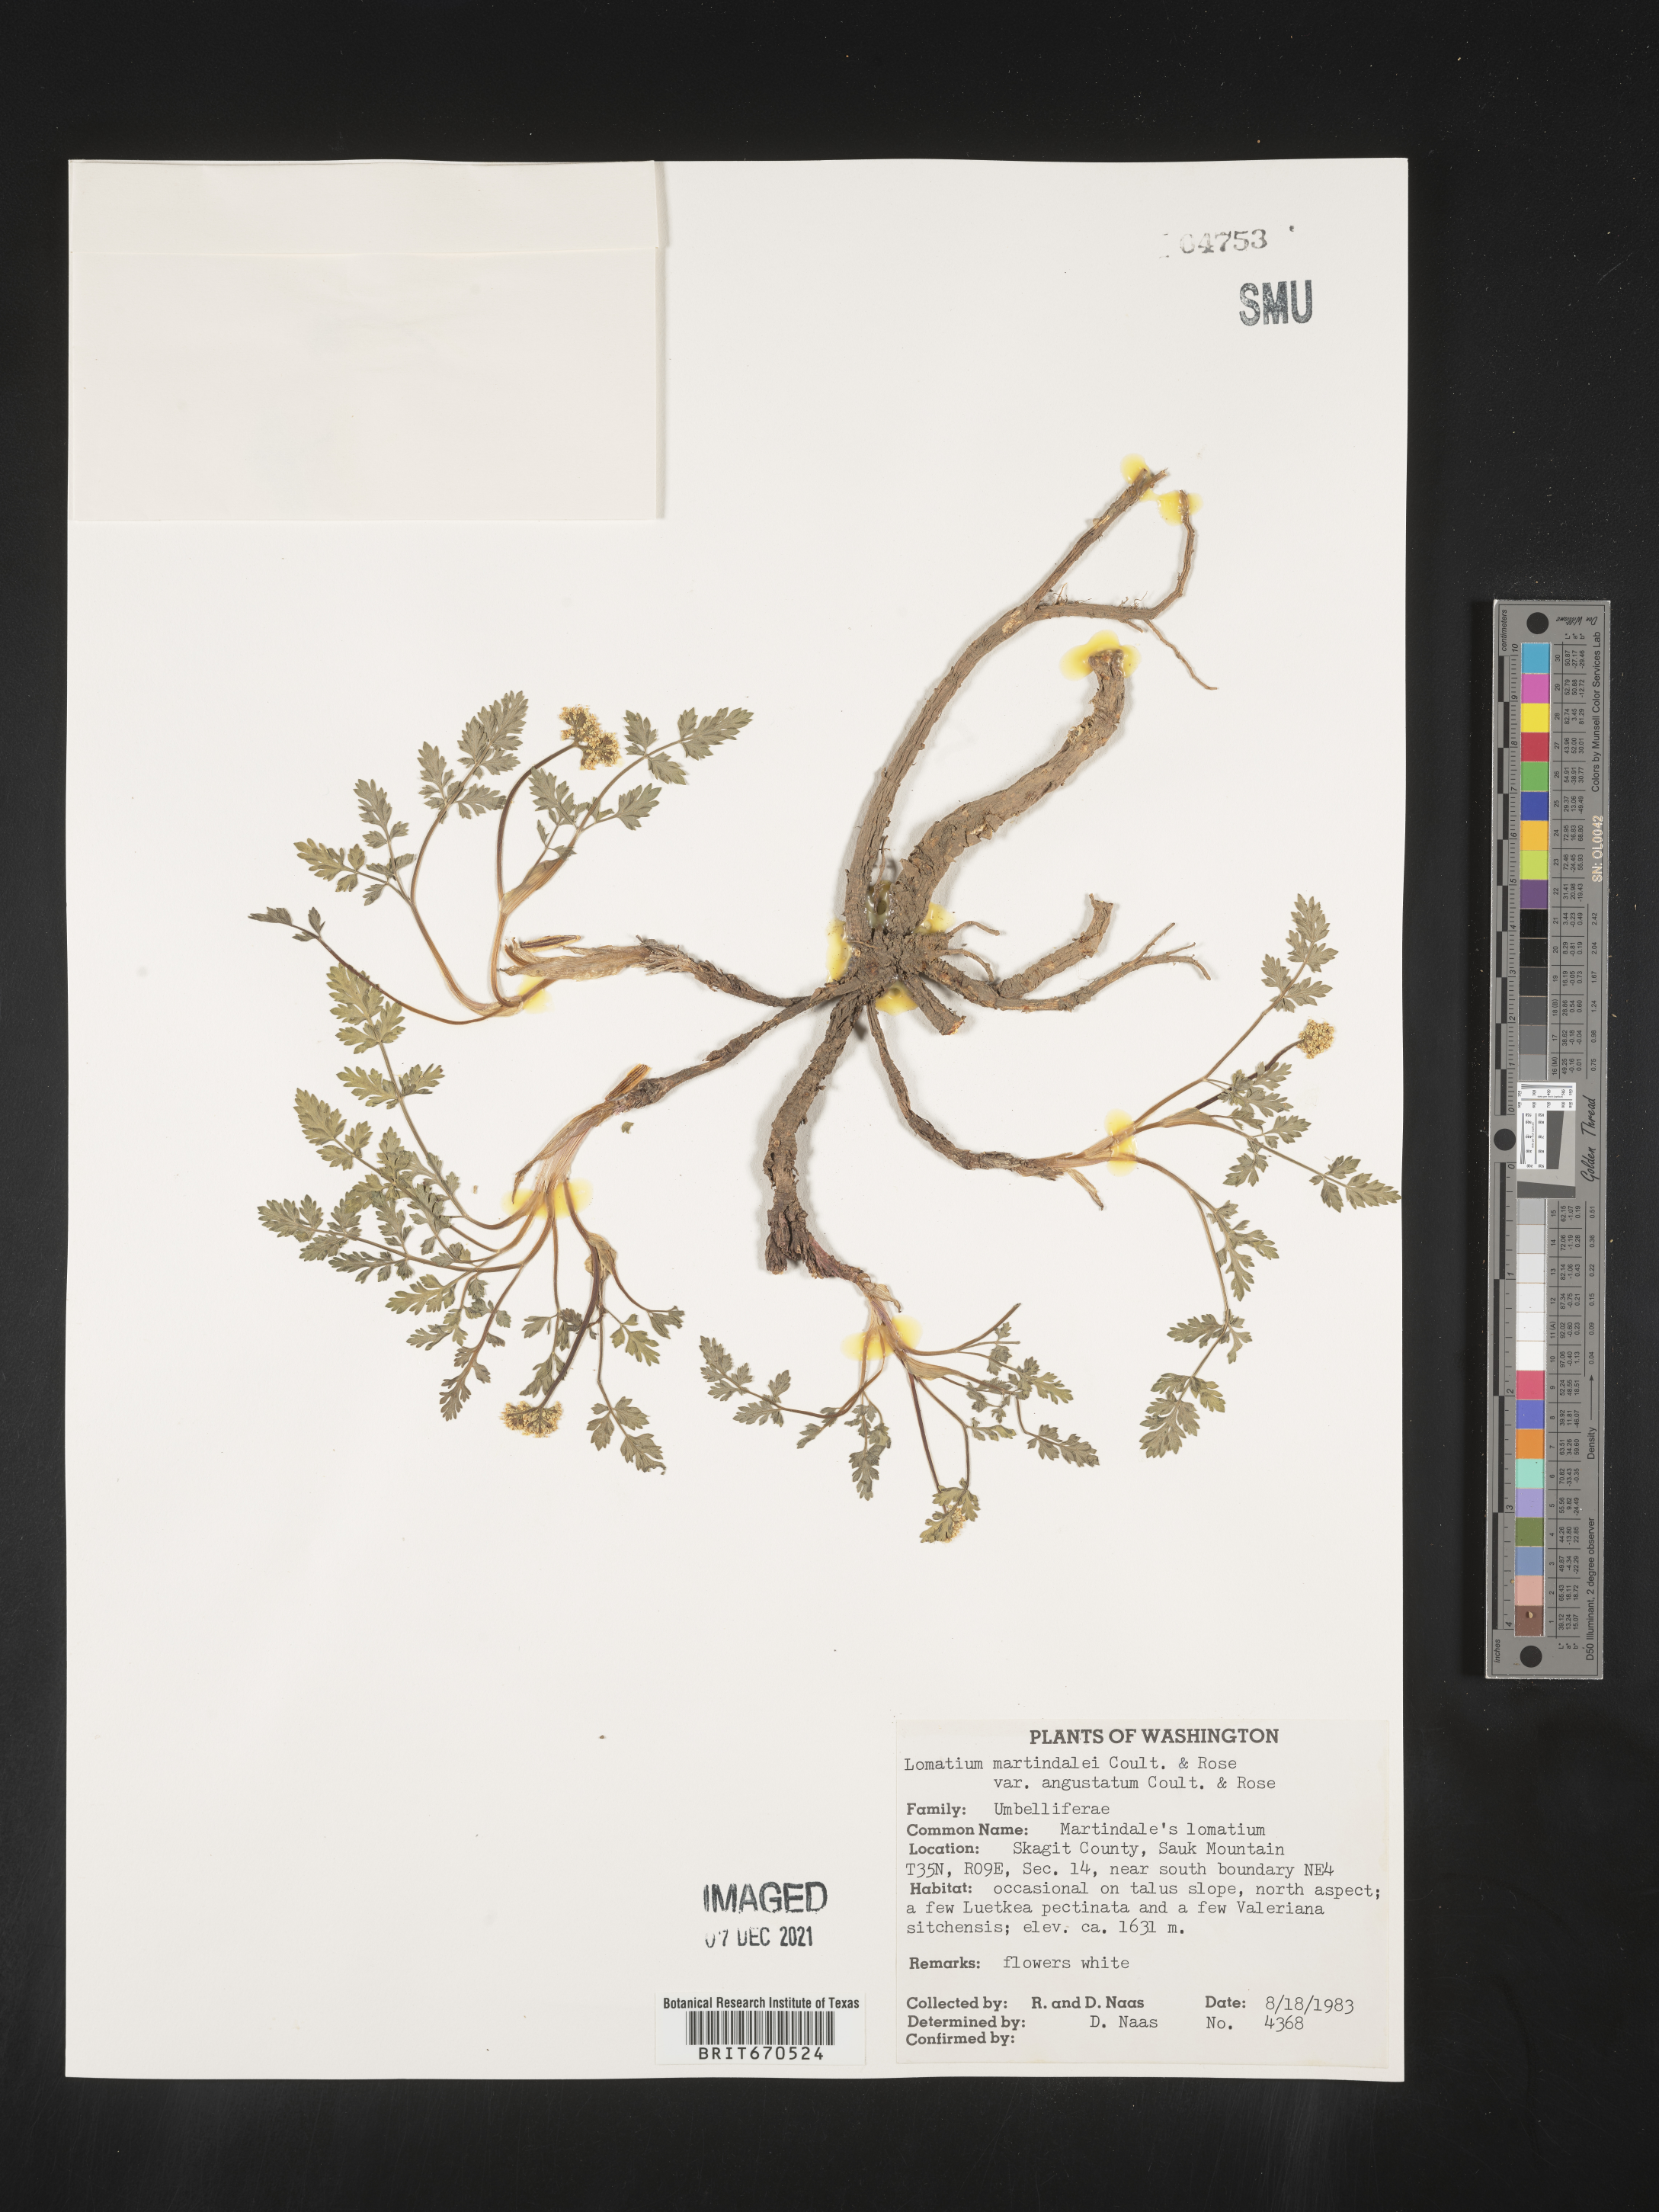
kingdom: Plantae
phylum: Tracheophyta
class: Magnoliopsida
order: Apiales
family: Apiaceae
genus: Lomatium
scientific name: Lomatium martindalei
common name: Cascade desert-parsley
